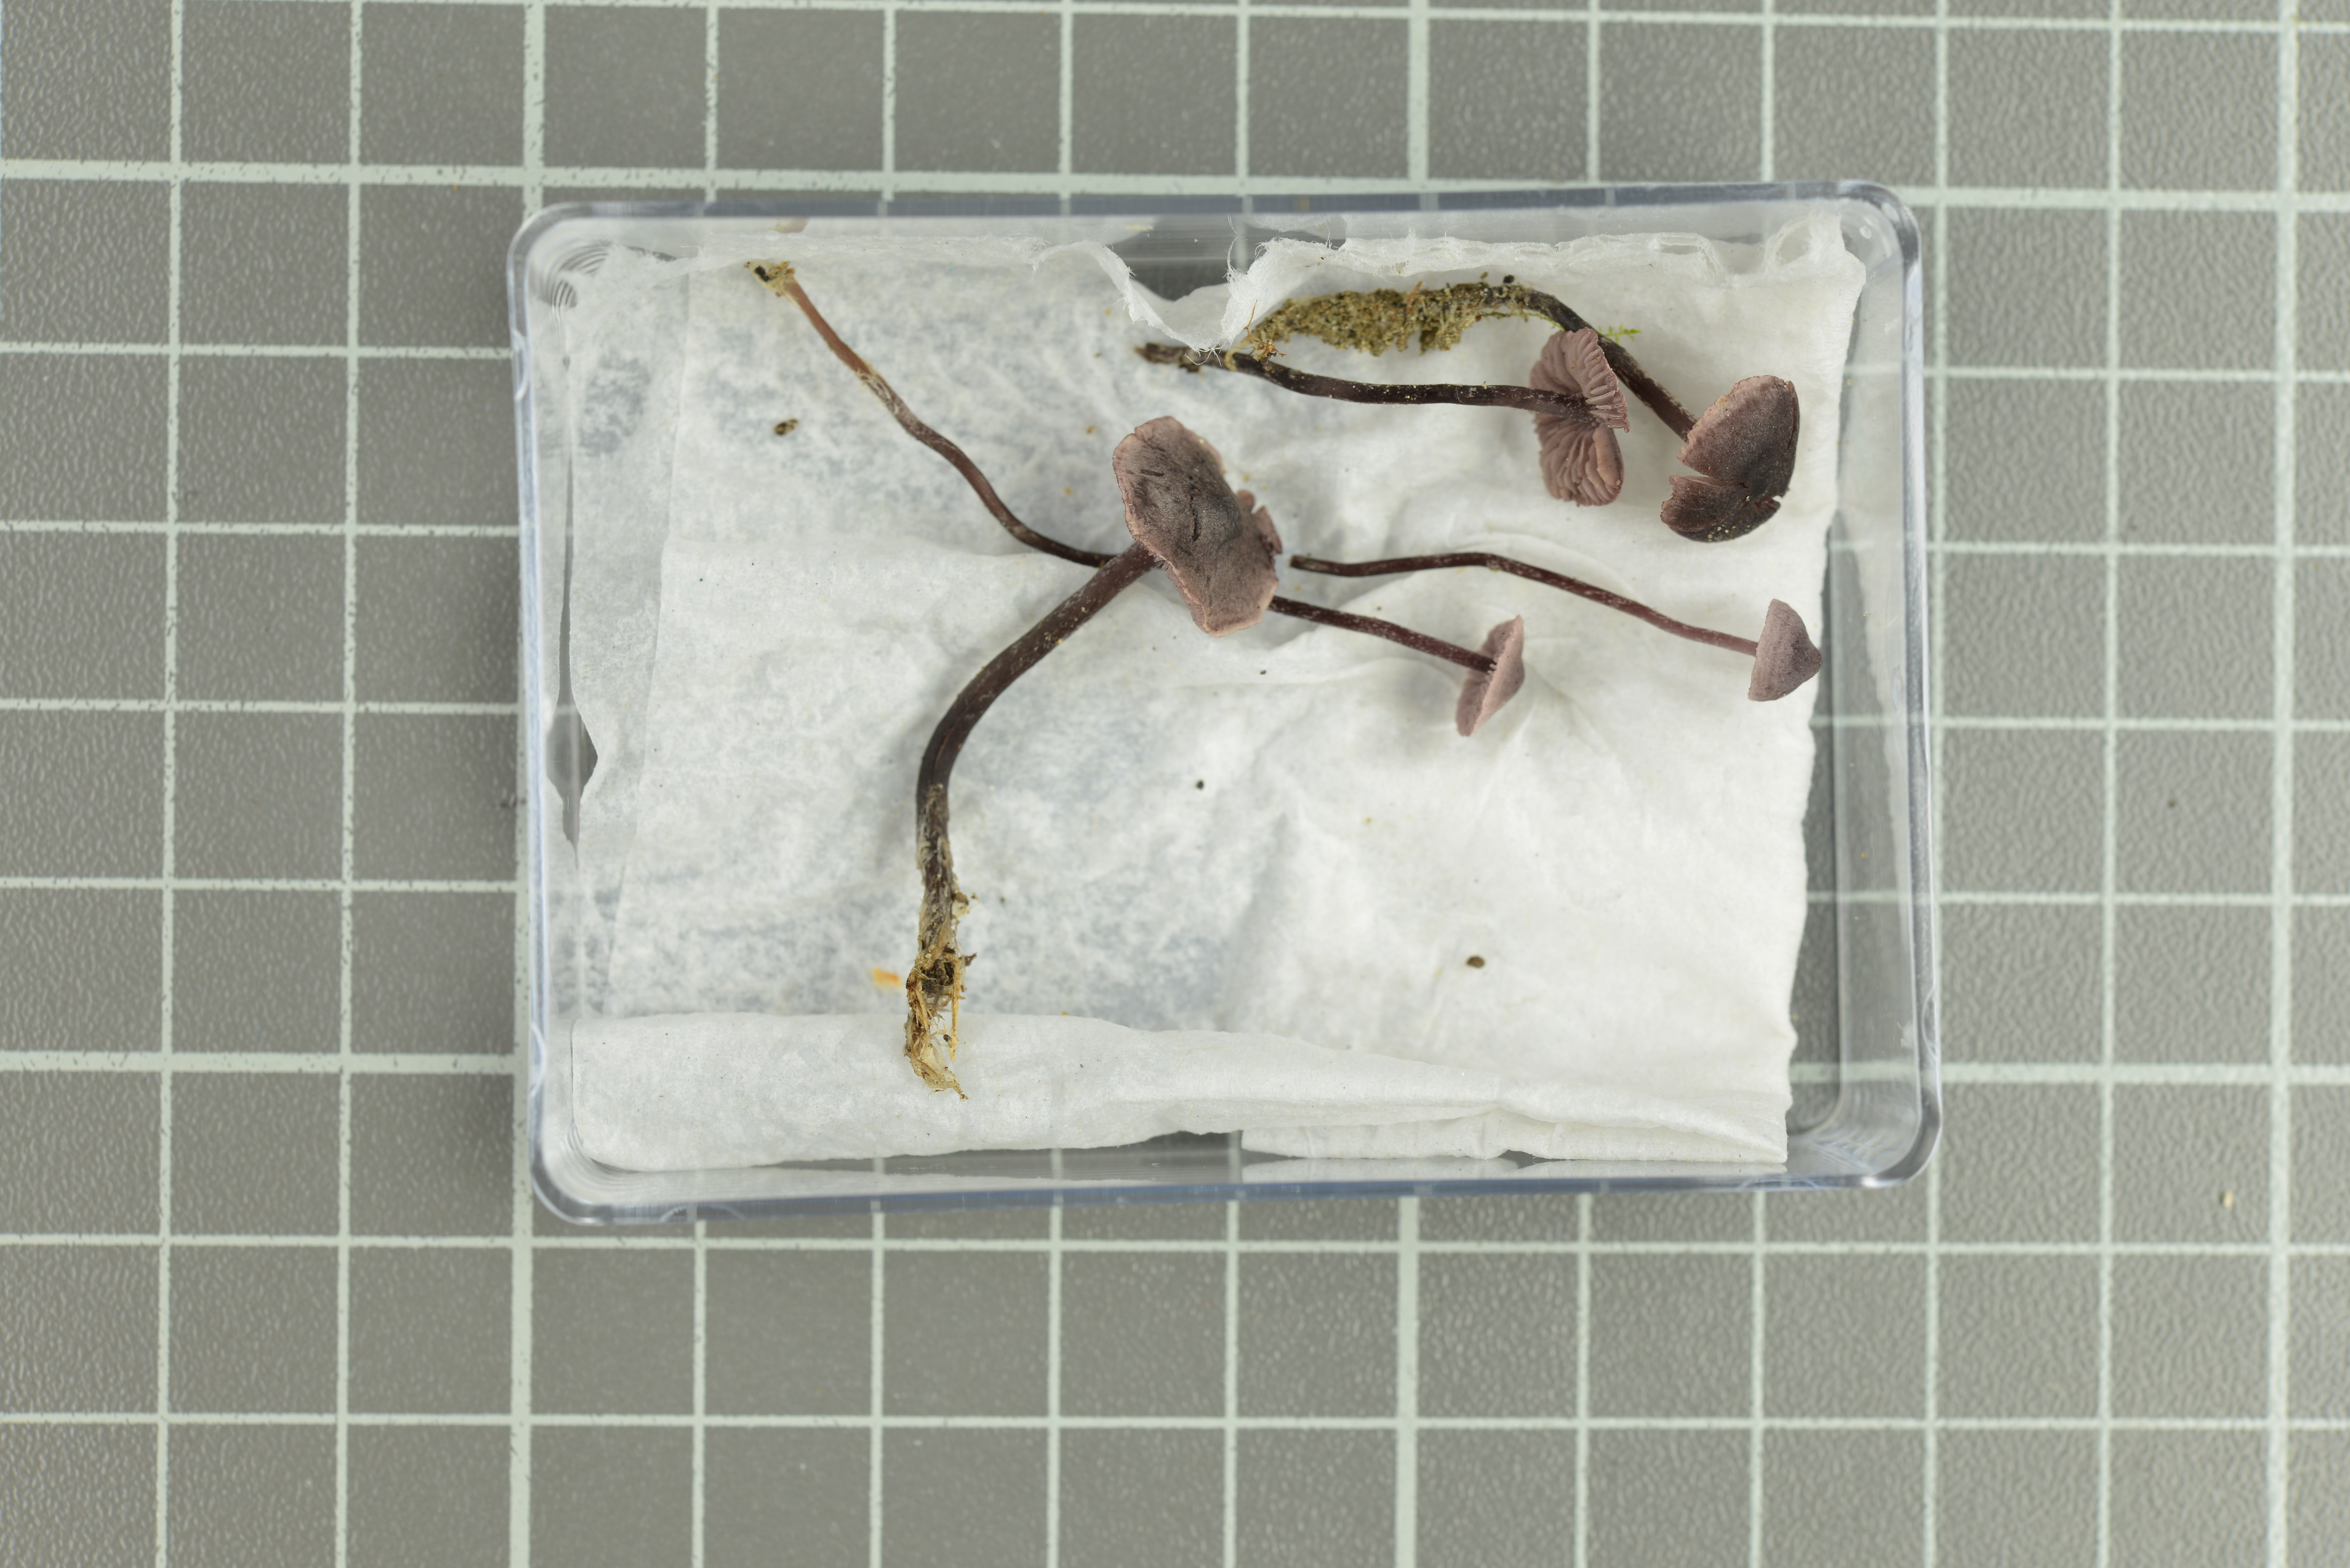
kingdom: Fungi
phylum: Basidiomycota
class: Agaricomycetes
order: Agaricales
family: Tricholomataceae
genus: Pseudobaeospora
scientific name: Pseudobaeospora pillodii
